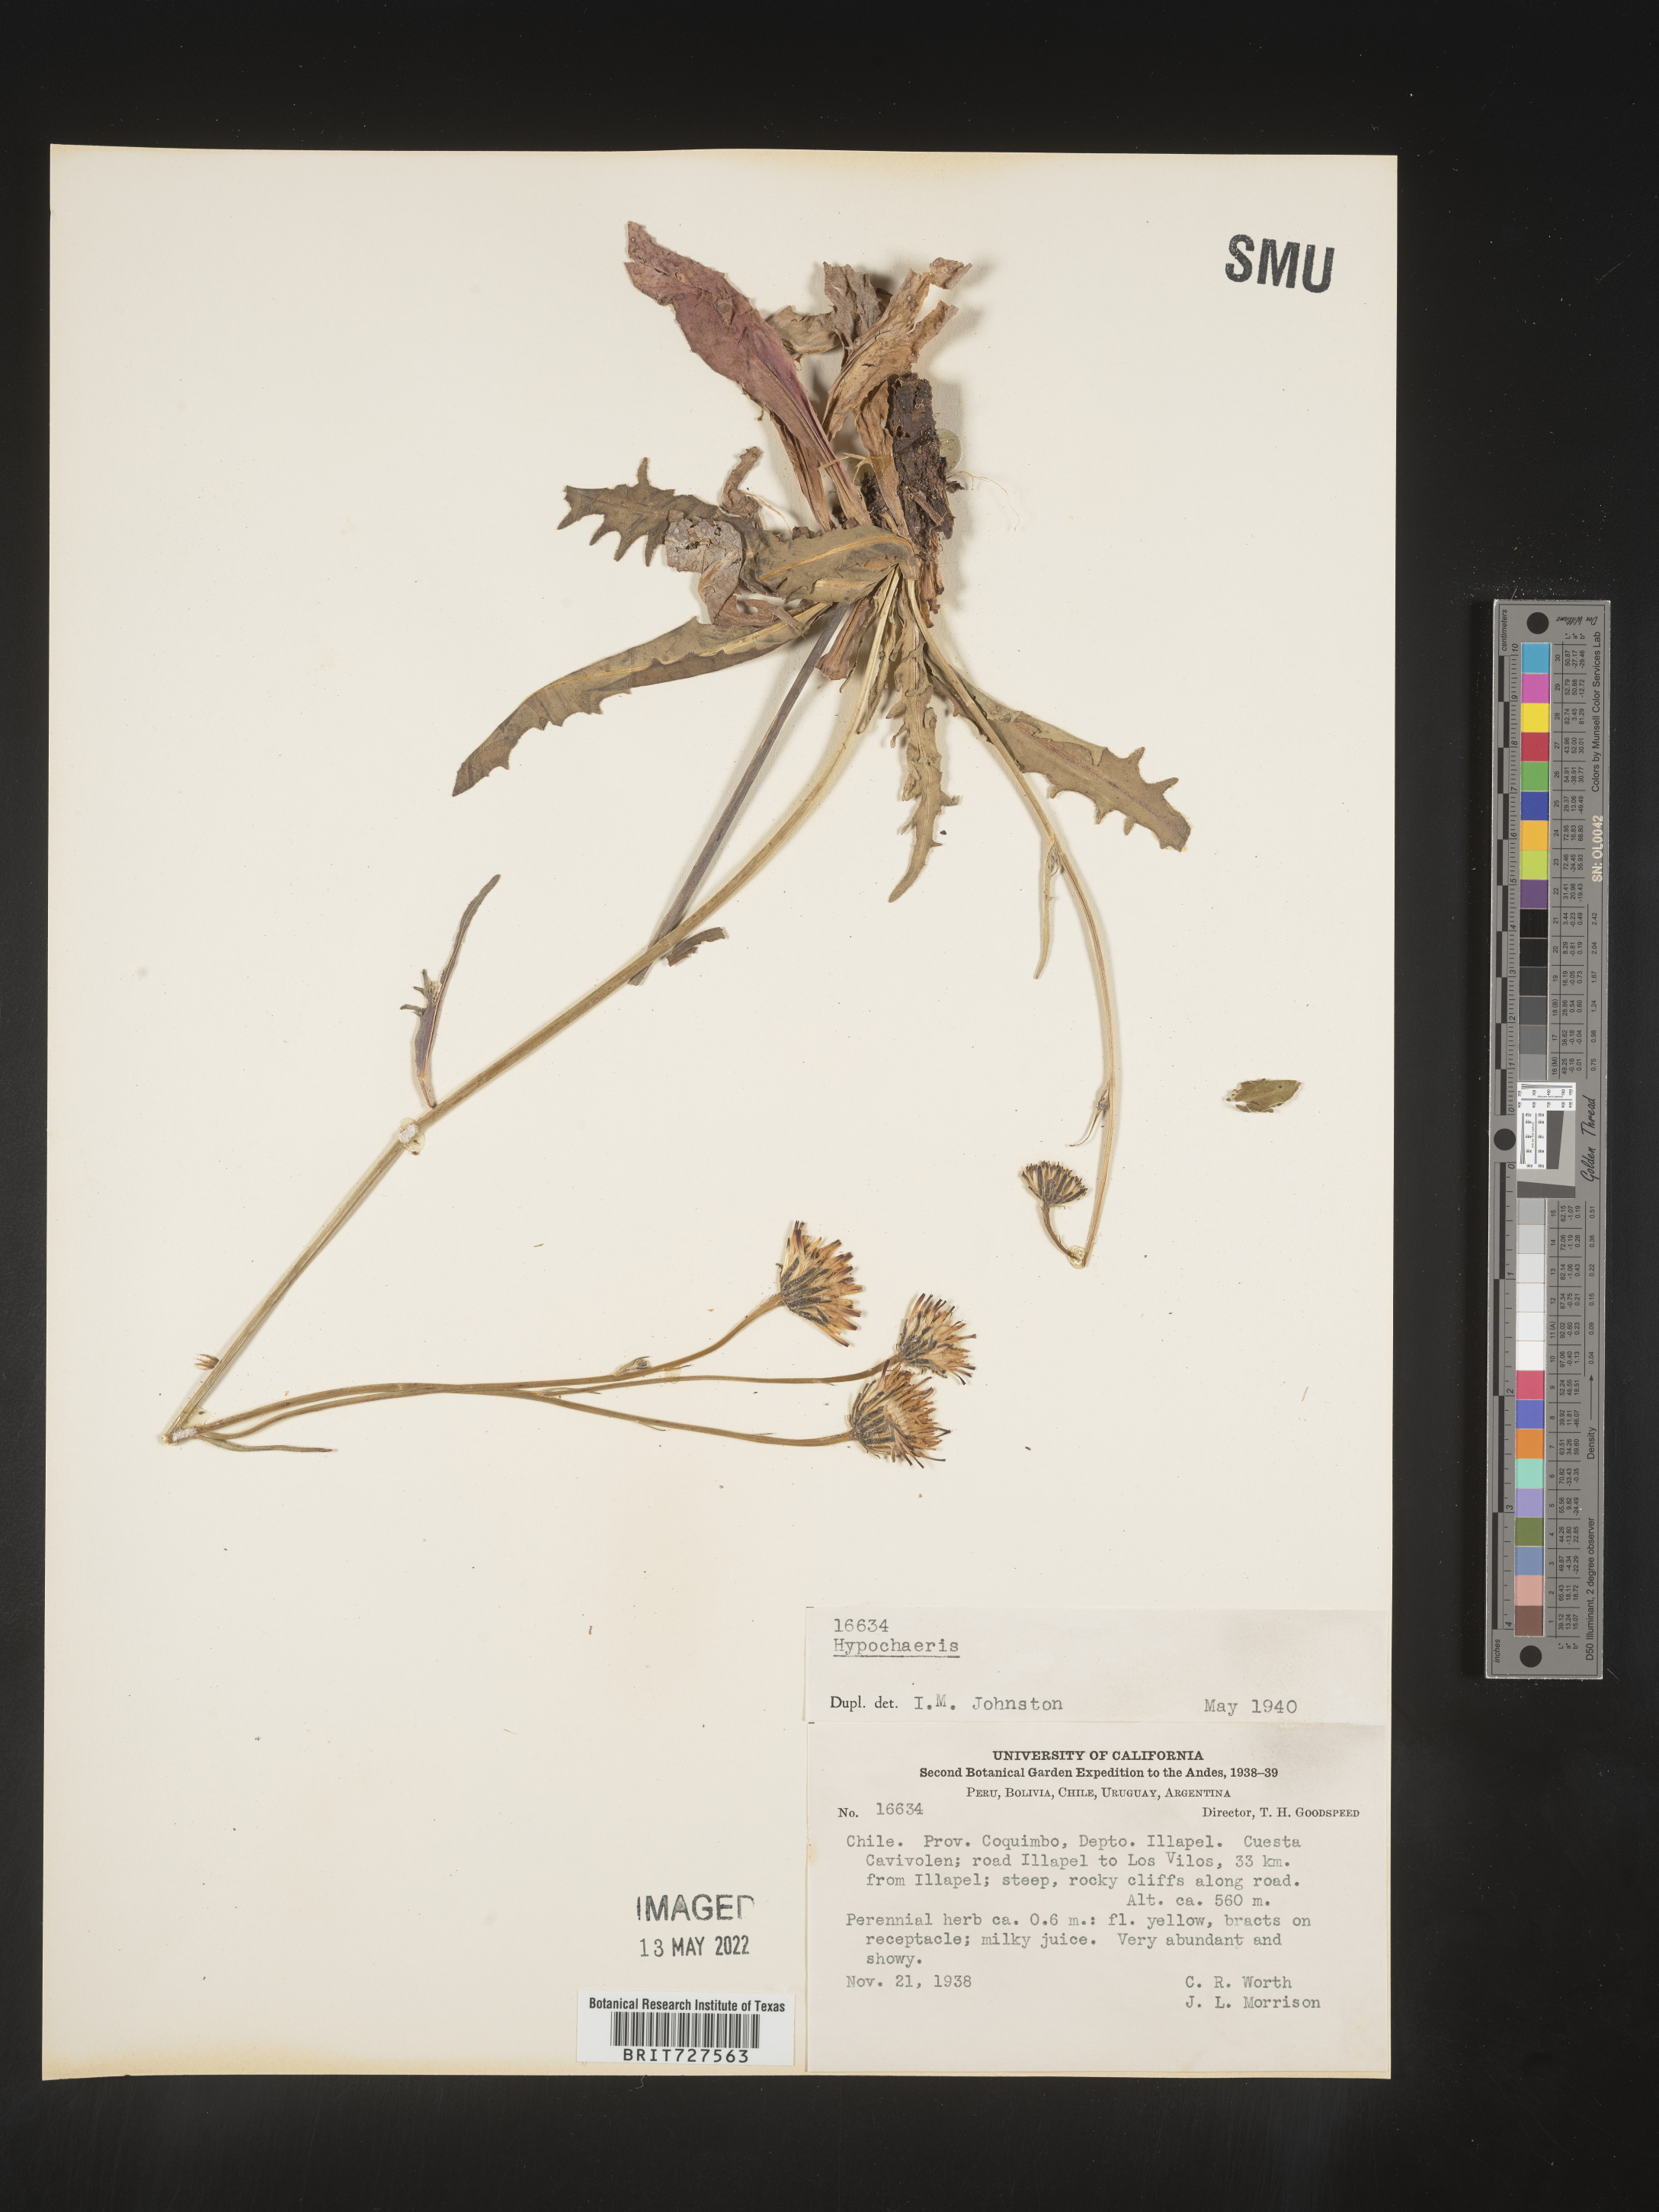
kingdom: Plantae
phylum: Tracheophyta
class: Magnoliopsida
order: Asterales
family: Asteraceae
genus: Hypochaeris
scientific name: Hypochaeris
